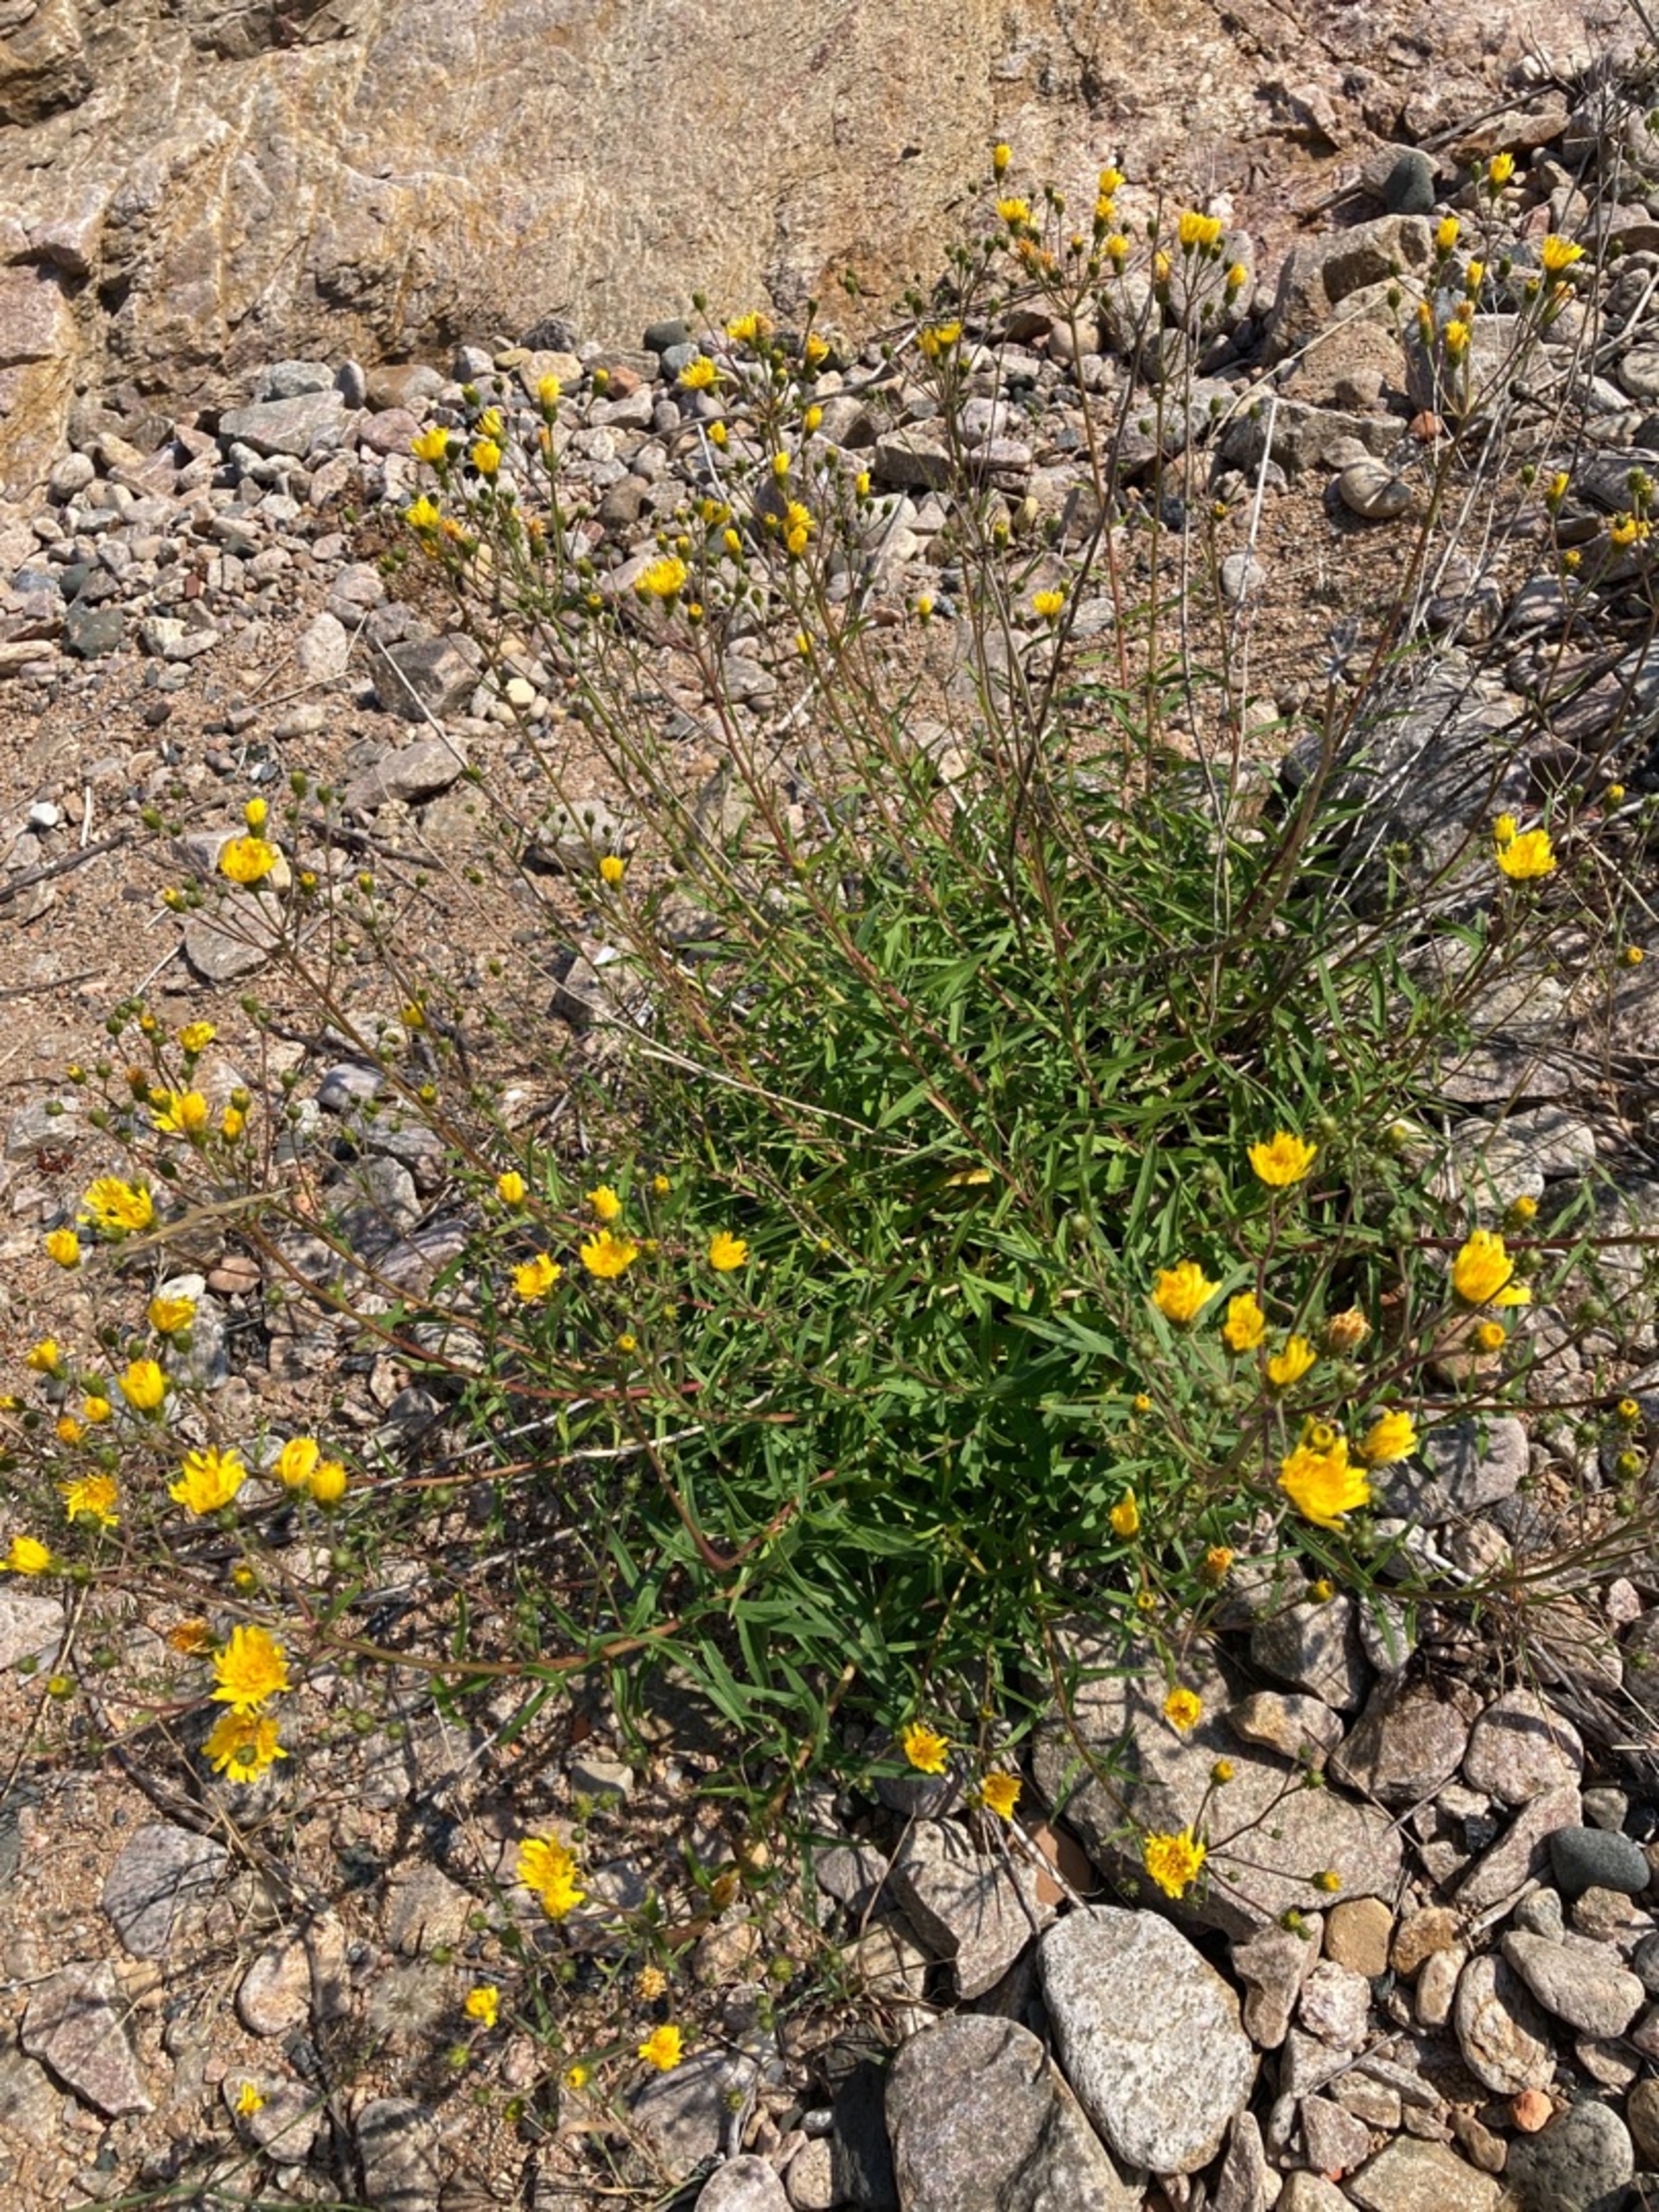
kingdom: Plantae
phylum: Tracheophyta
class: Magnoliopsida
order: Asterales
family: Asteraceae
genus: Hieracium
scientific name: Hieracium umbellatum
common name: Smalbladet høgeurt
